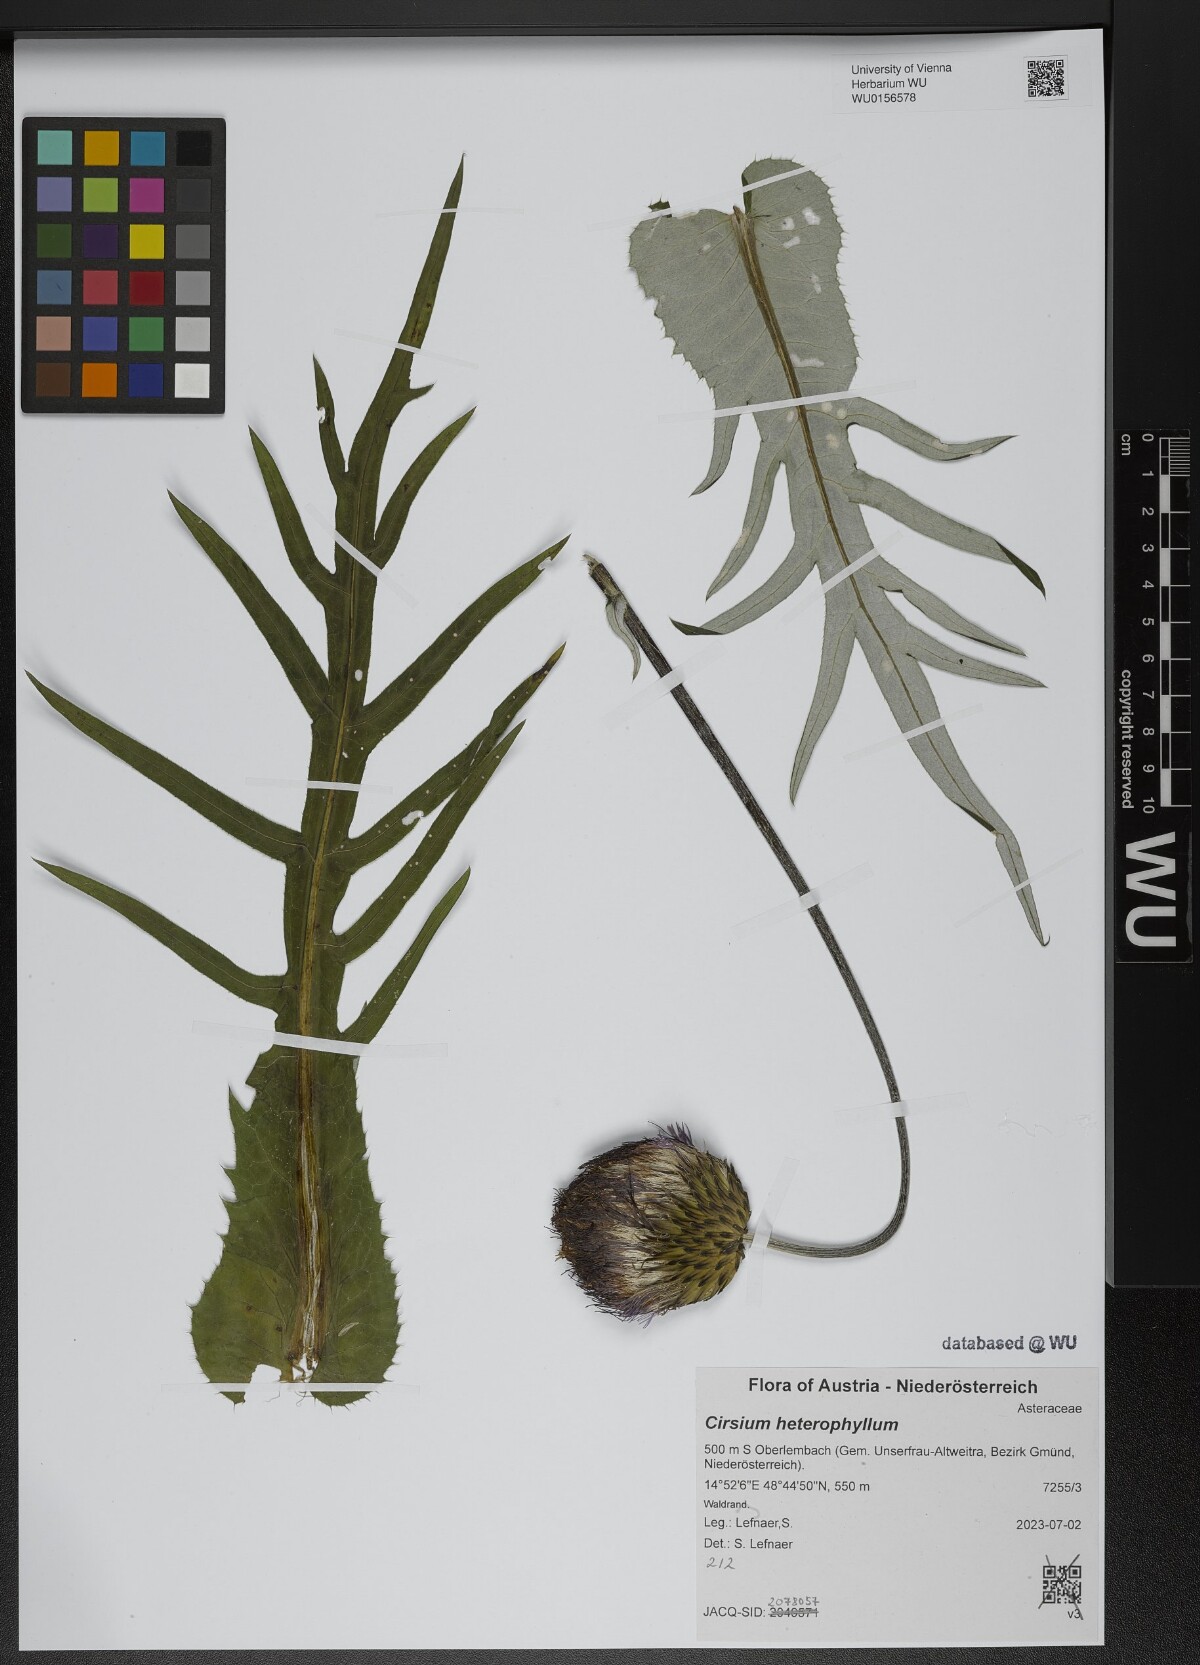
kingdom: Plantae
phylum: Tracheophyta
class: Magnoliopsida
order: Asterales
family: Asteraceae
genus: Cirsium
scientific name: Cirsium heterophyllum
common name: Melancholy thistle
